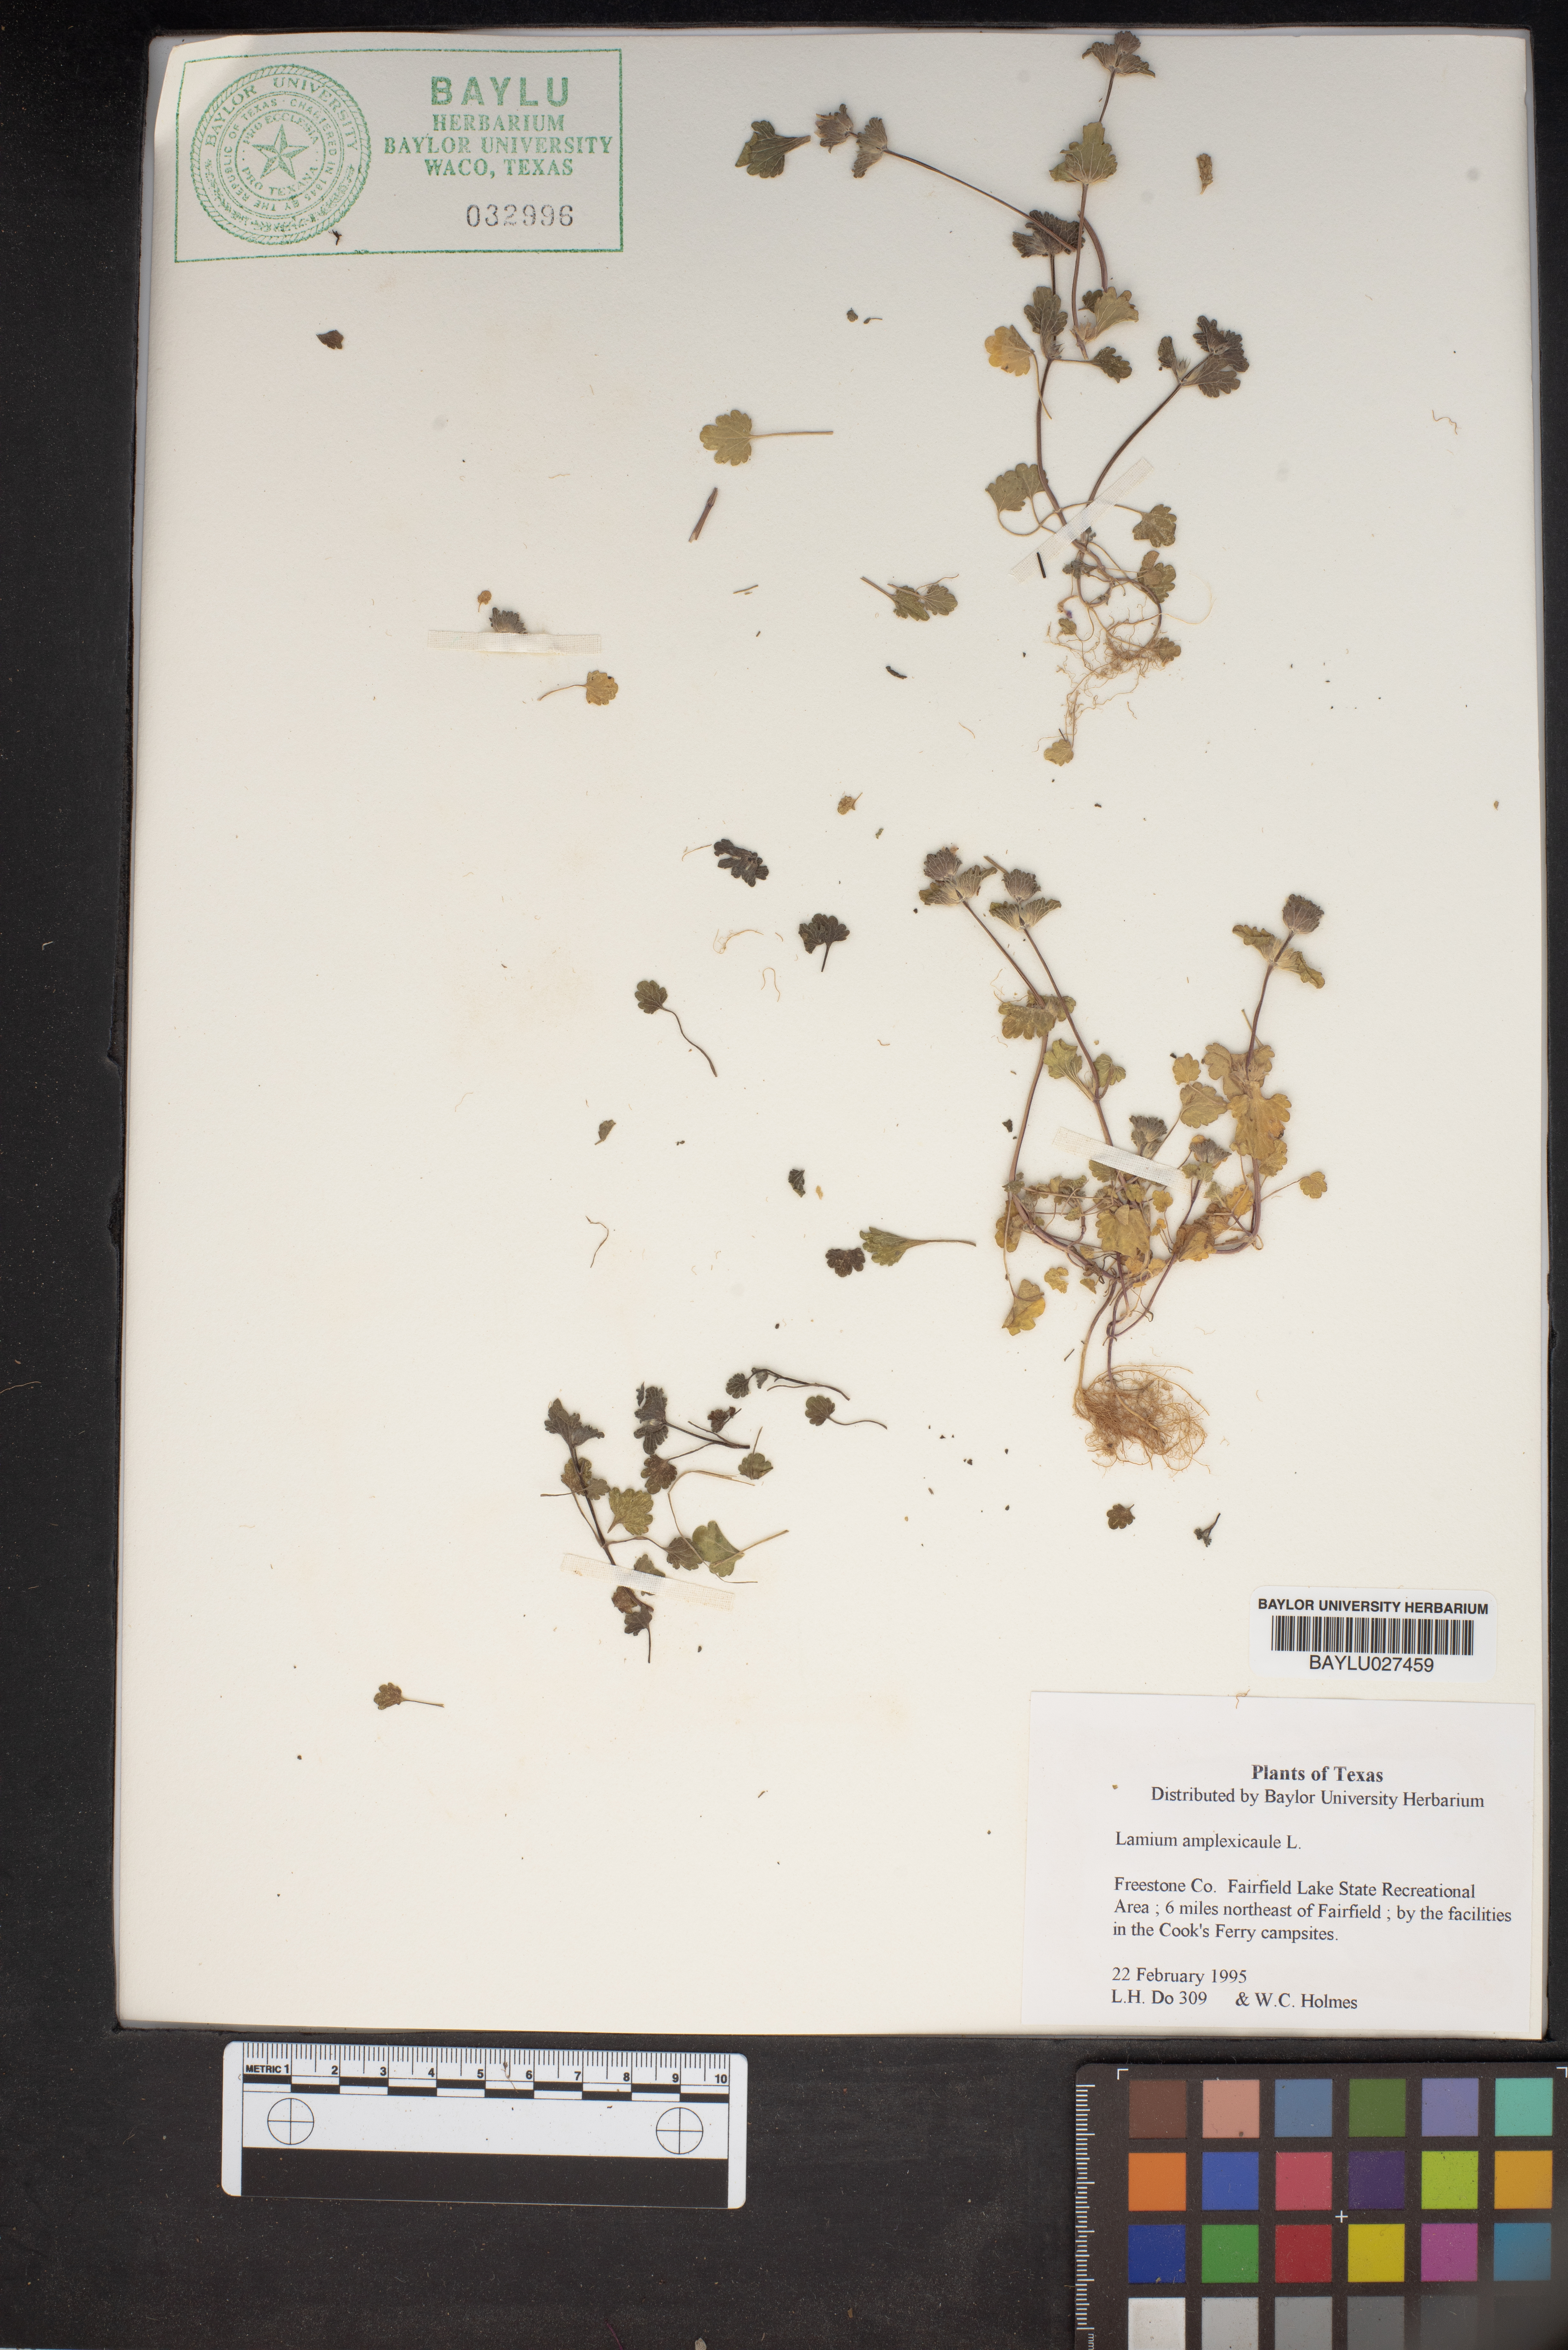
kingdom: Plantae
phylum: Tracheophyta
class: Magnoliopsida
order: Lamiales
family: Lamiaceae
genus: Lamium
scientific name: Lamium amplexicaule
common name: Henbit dead-nettle
